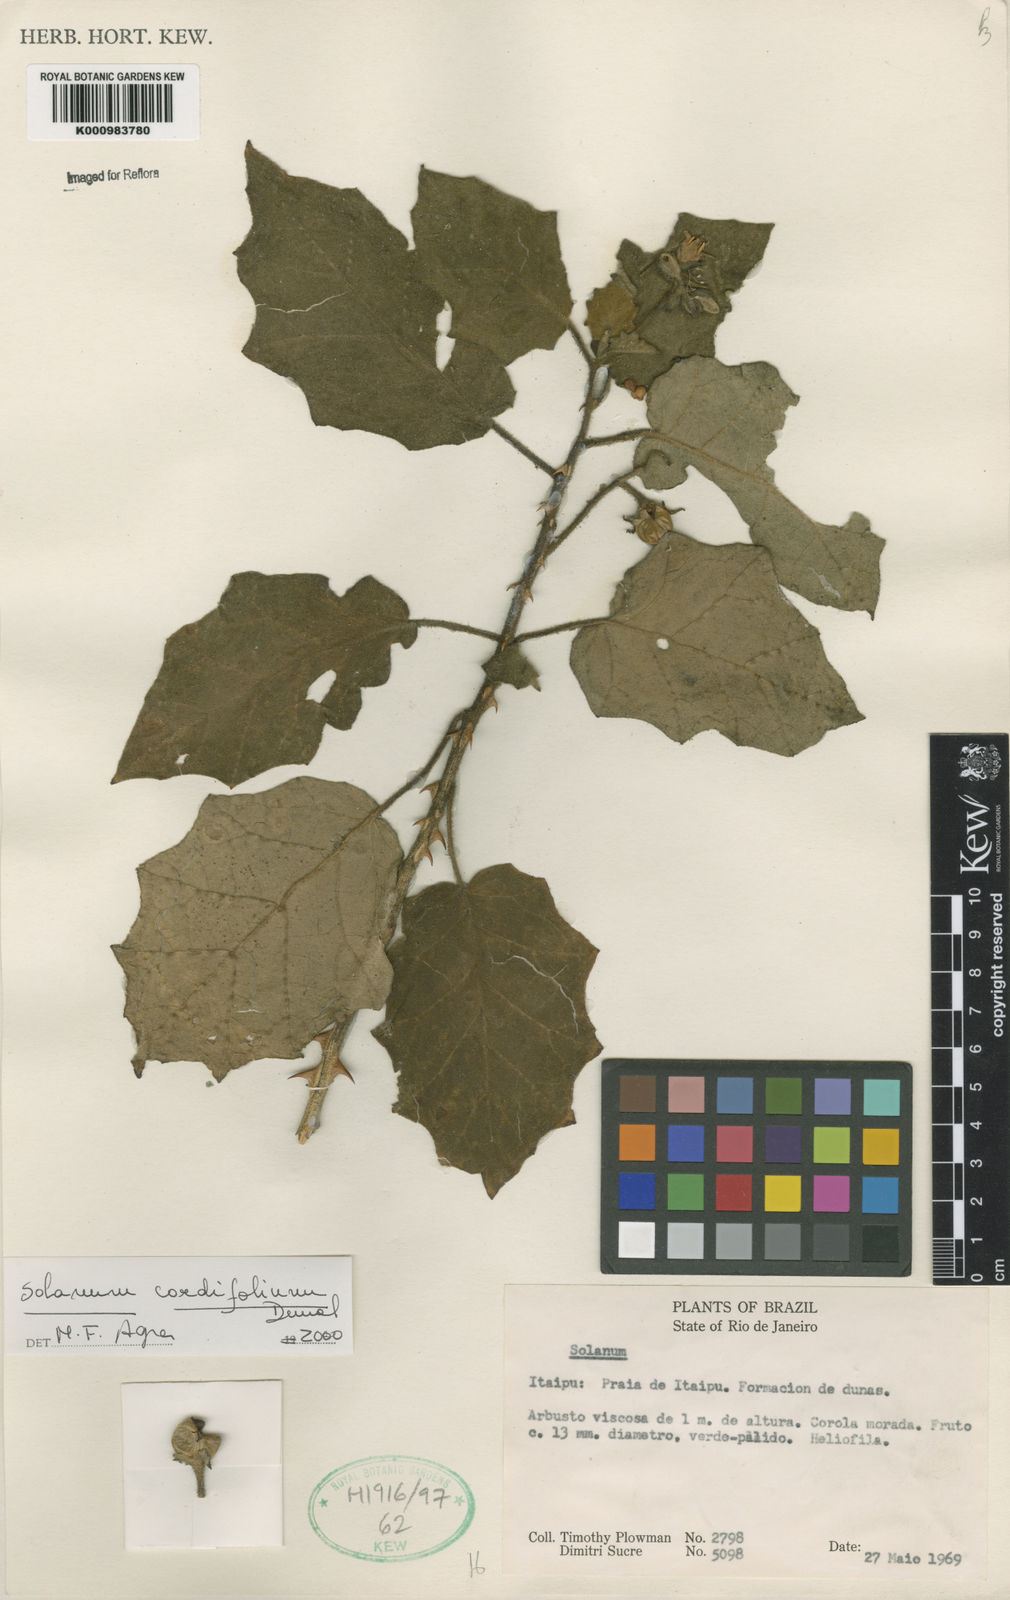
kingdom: Plantae
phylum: Tracheophyta
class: Magnoliopsida
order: Solanales
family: Solanaceae
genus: Solanum
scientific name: Solanum cordifolium
